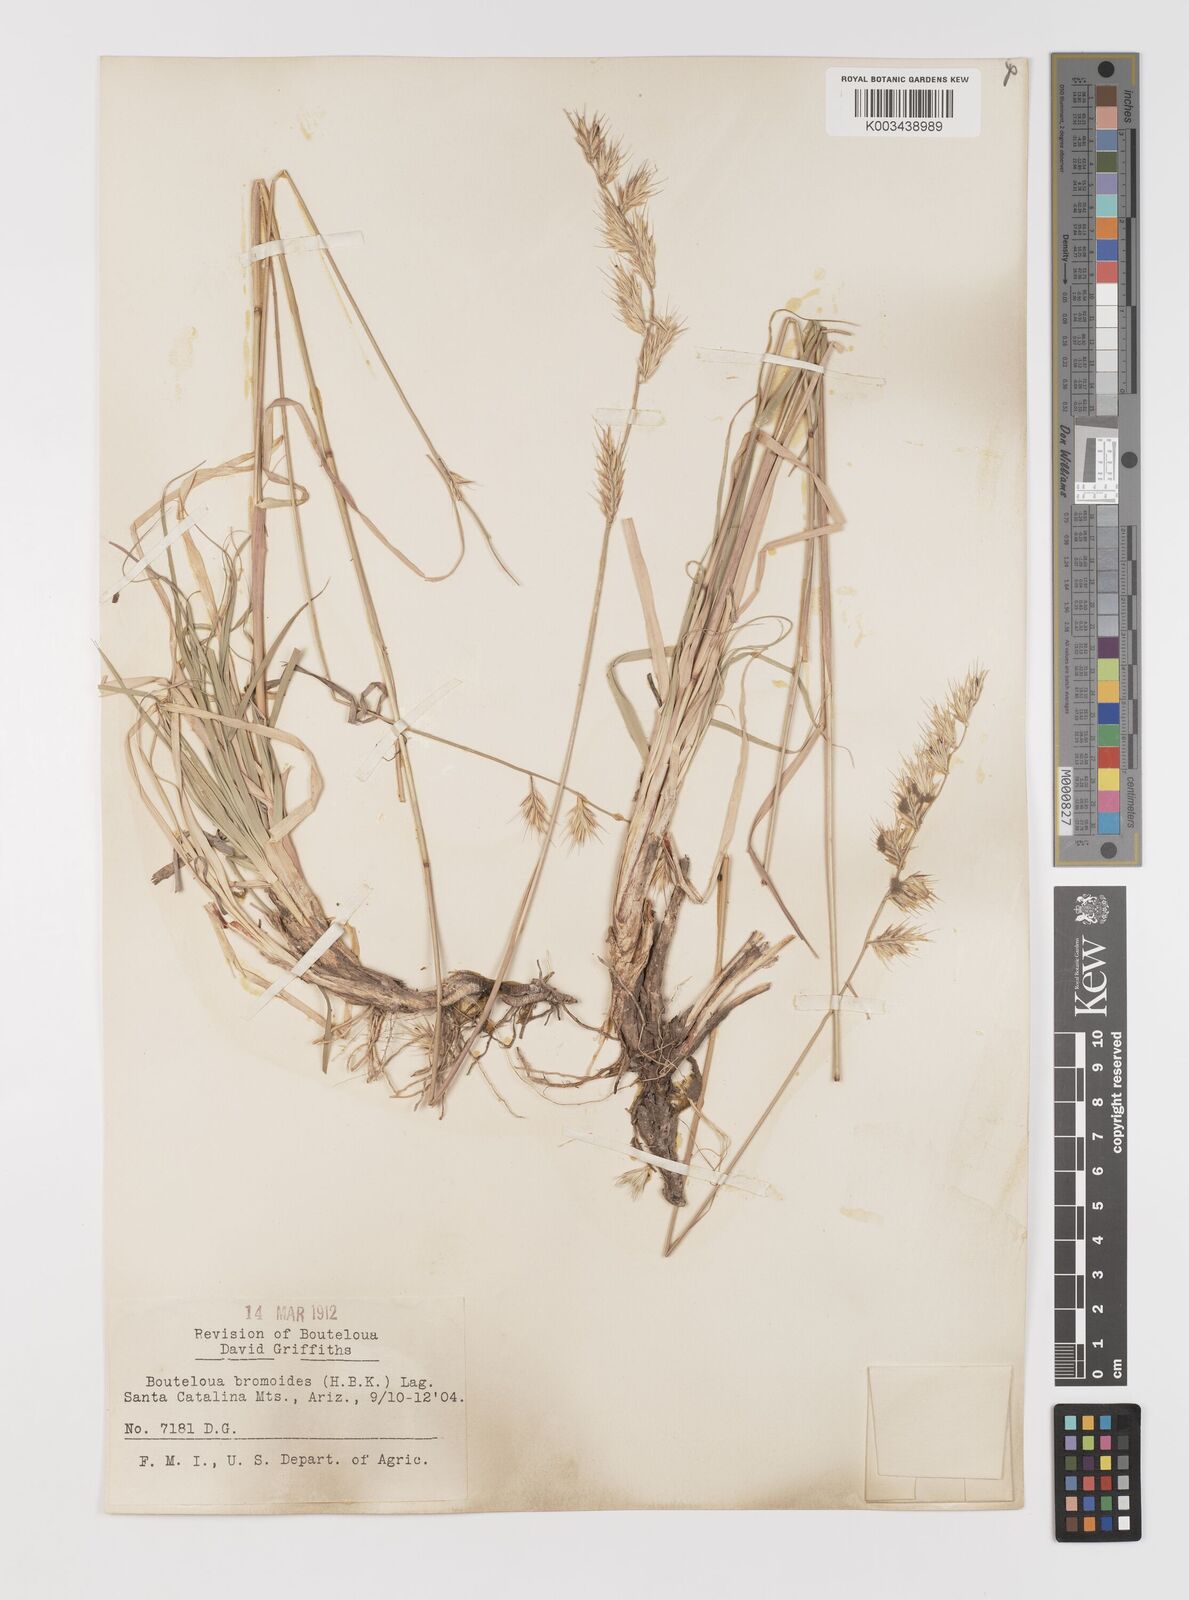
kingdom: Plantae
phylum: Tracheophyta
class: Liliopsida
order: Poales
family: Poaceae
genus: Bouteloua
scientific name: Bouteloua repens
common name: Slender grama
